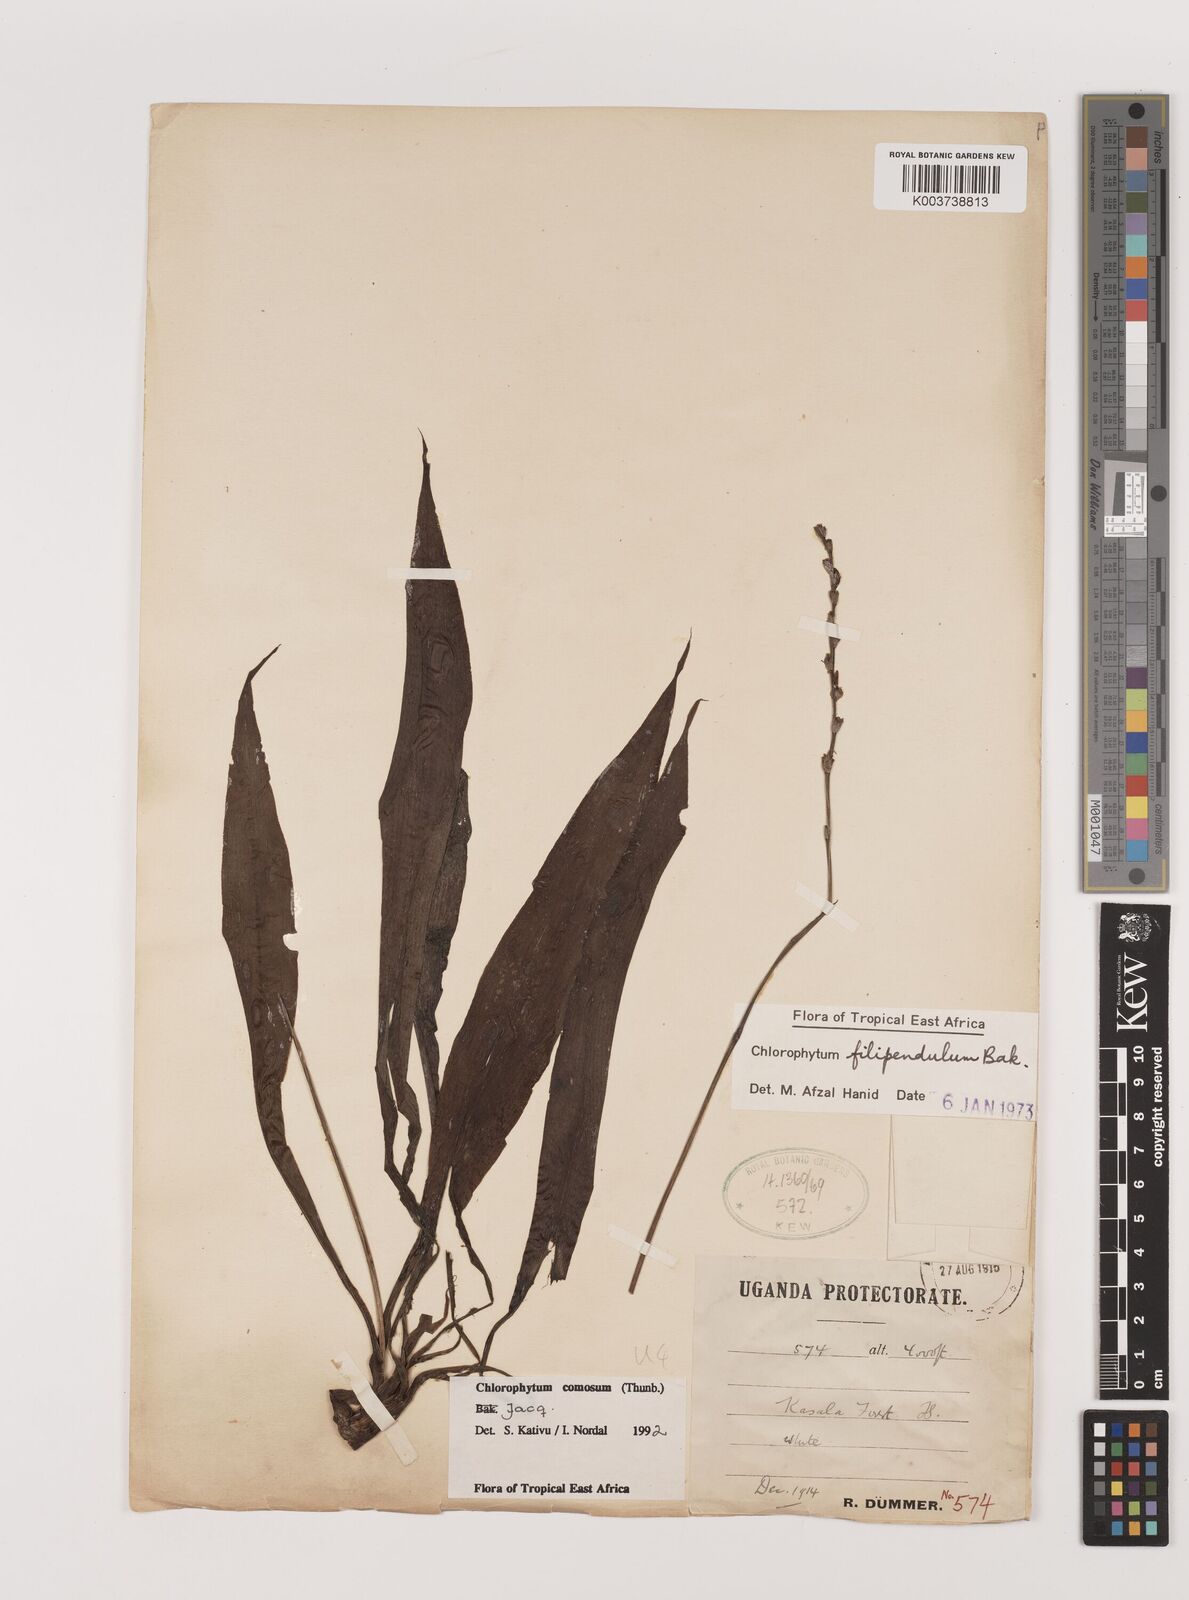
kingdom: Plantae
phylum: Tracheophyta
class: Liliopsida
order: Asparagales
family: Asparagaceae
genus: Chlorophytum
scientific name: Chlorophytum comosum
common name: Spider plant
